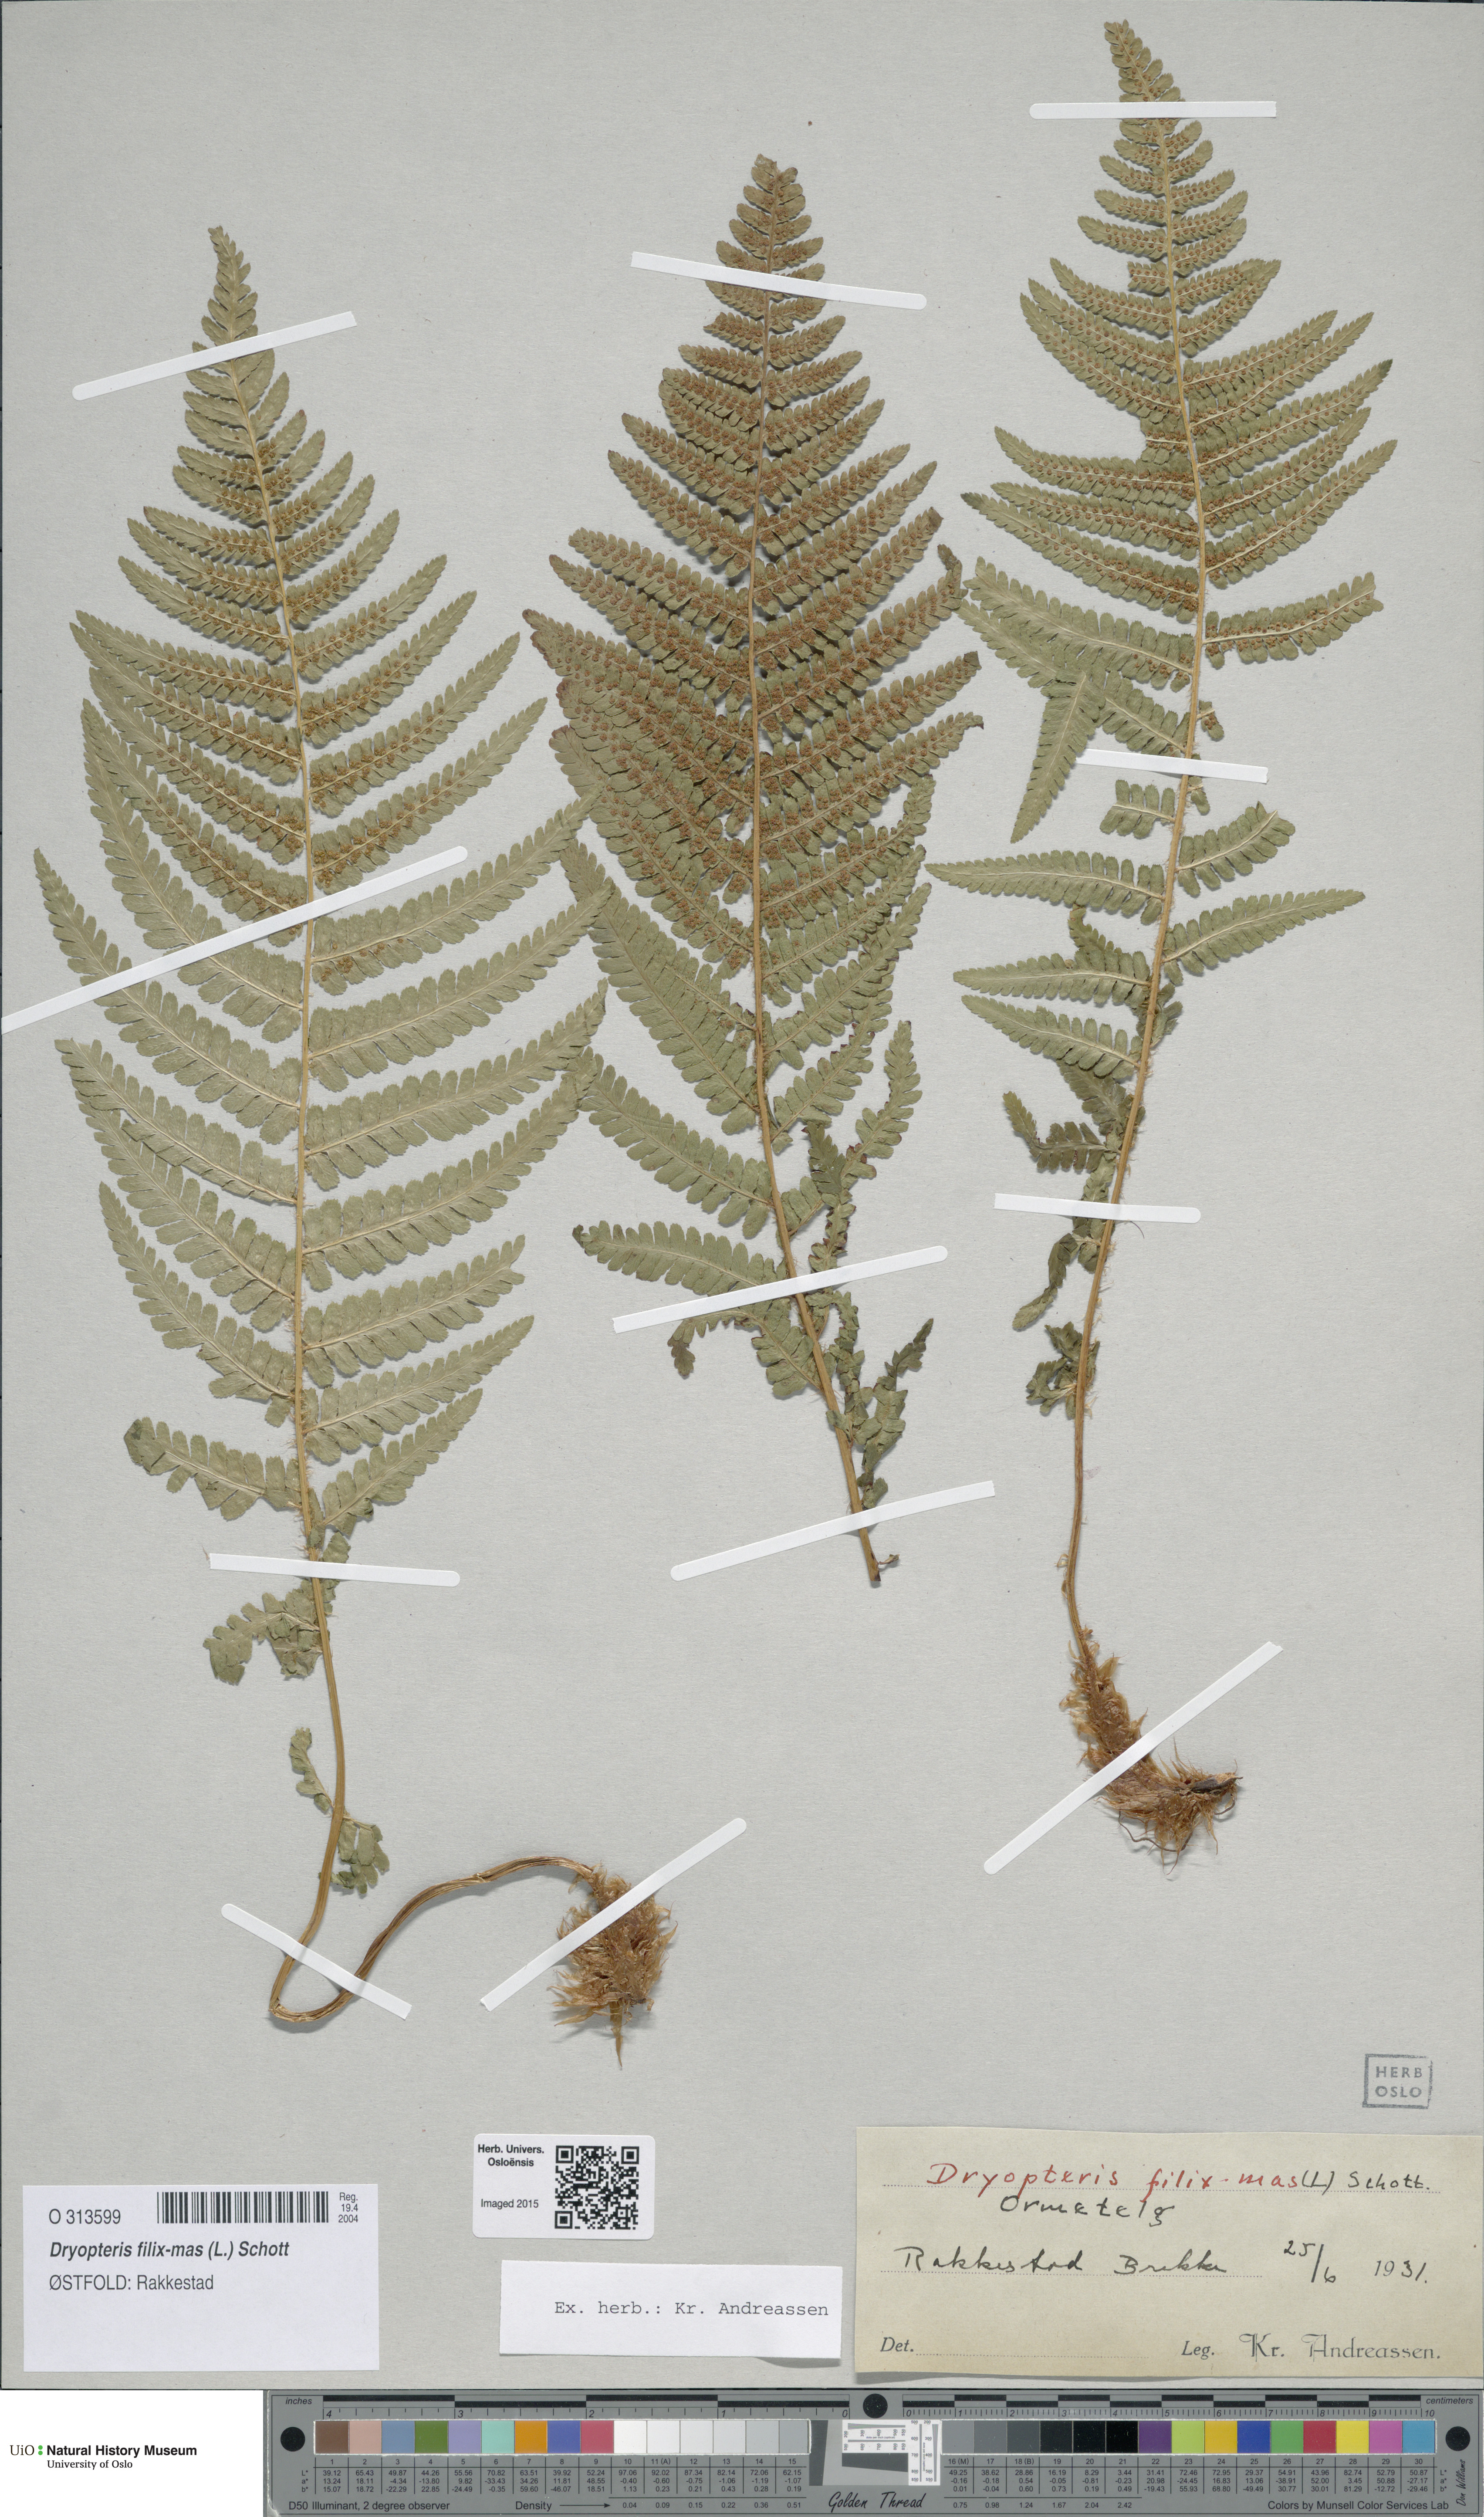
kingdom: Plantae
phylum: Tracheophyta
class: Polypodiopsida
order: Polypodiales
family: Dryopteridaceae
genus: Dryopteris
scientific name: Dryopteris filix-mas
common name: Male fern
